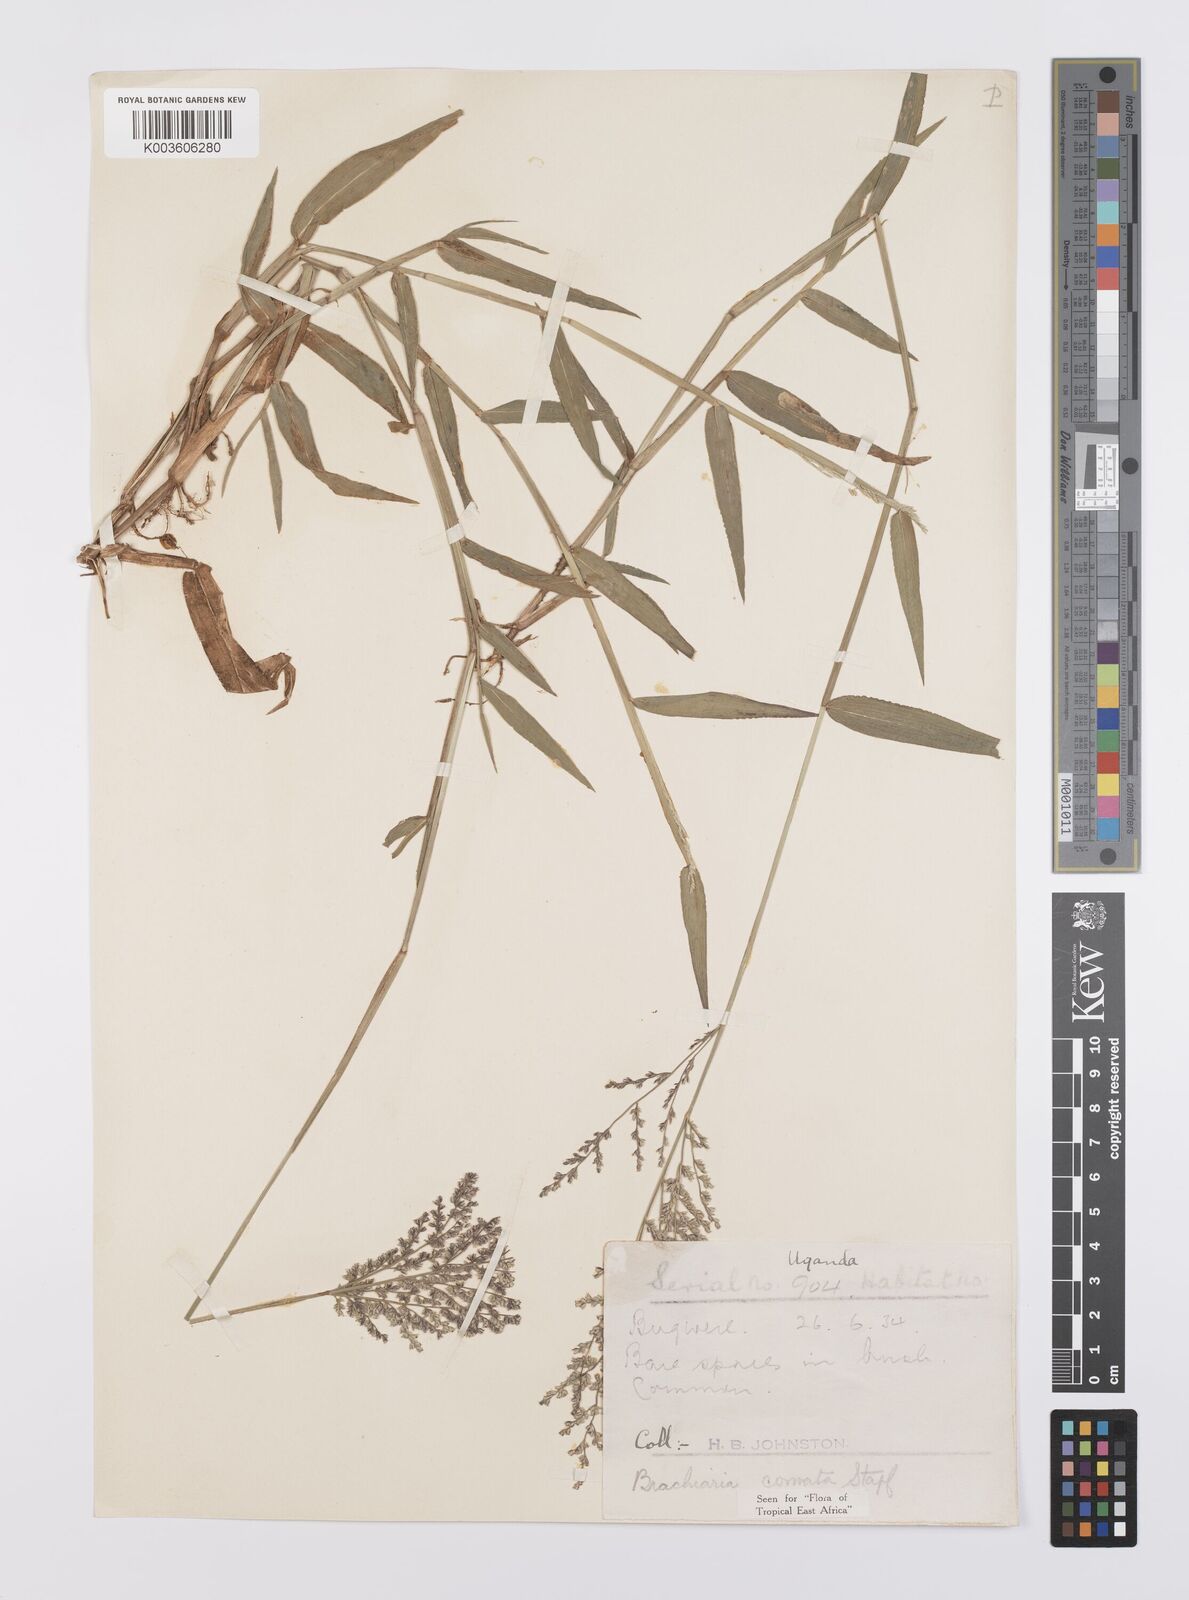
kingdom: Plantae
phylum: Tracheophyta
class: Liliopsida
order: Poales
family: Poaceae
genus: Urochloa
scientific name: Urochloa comata
